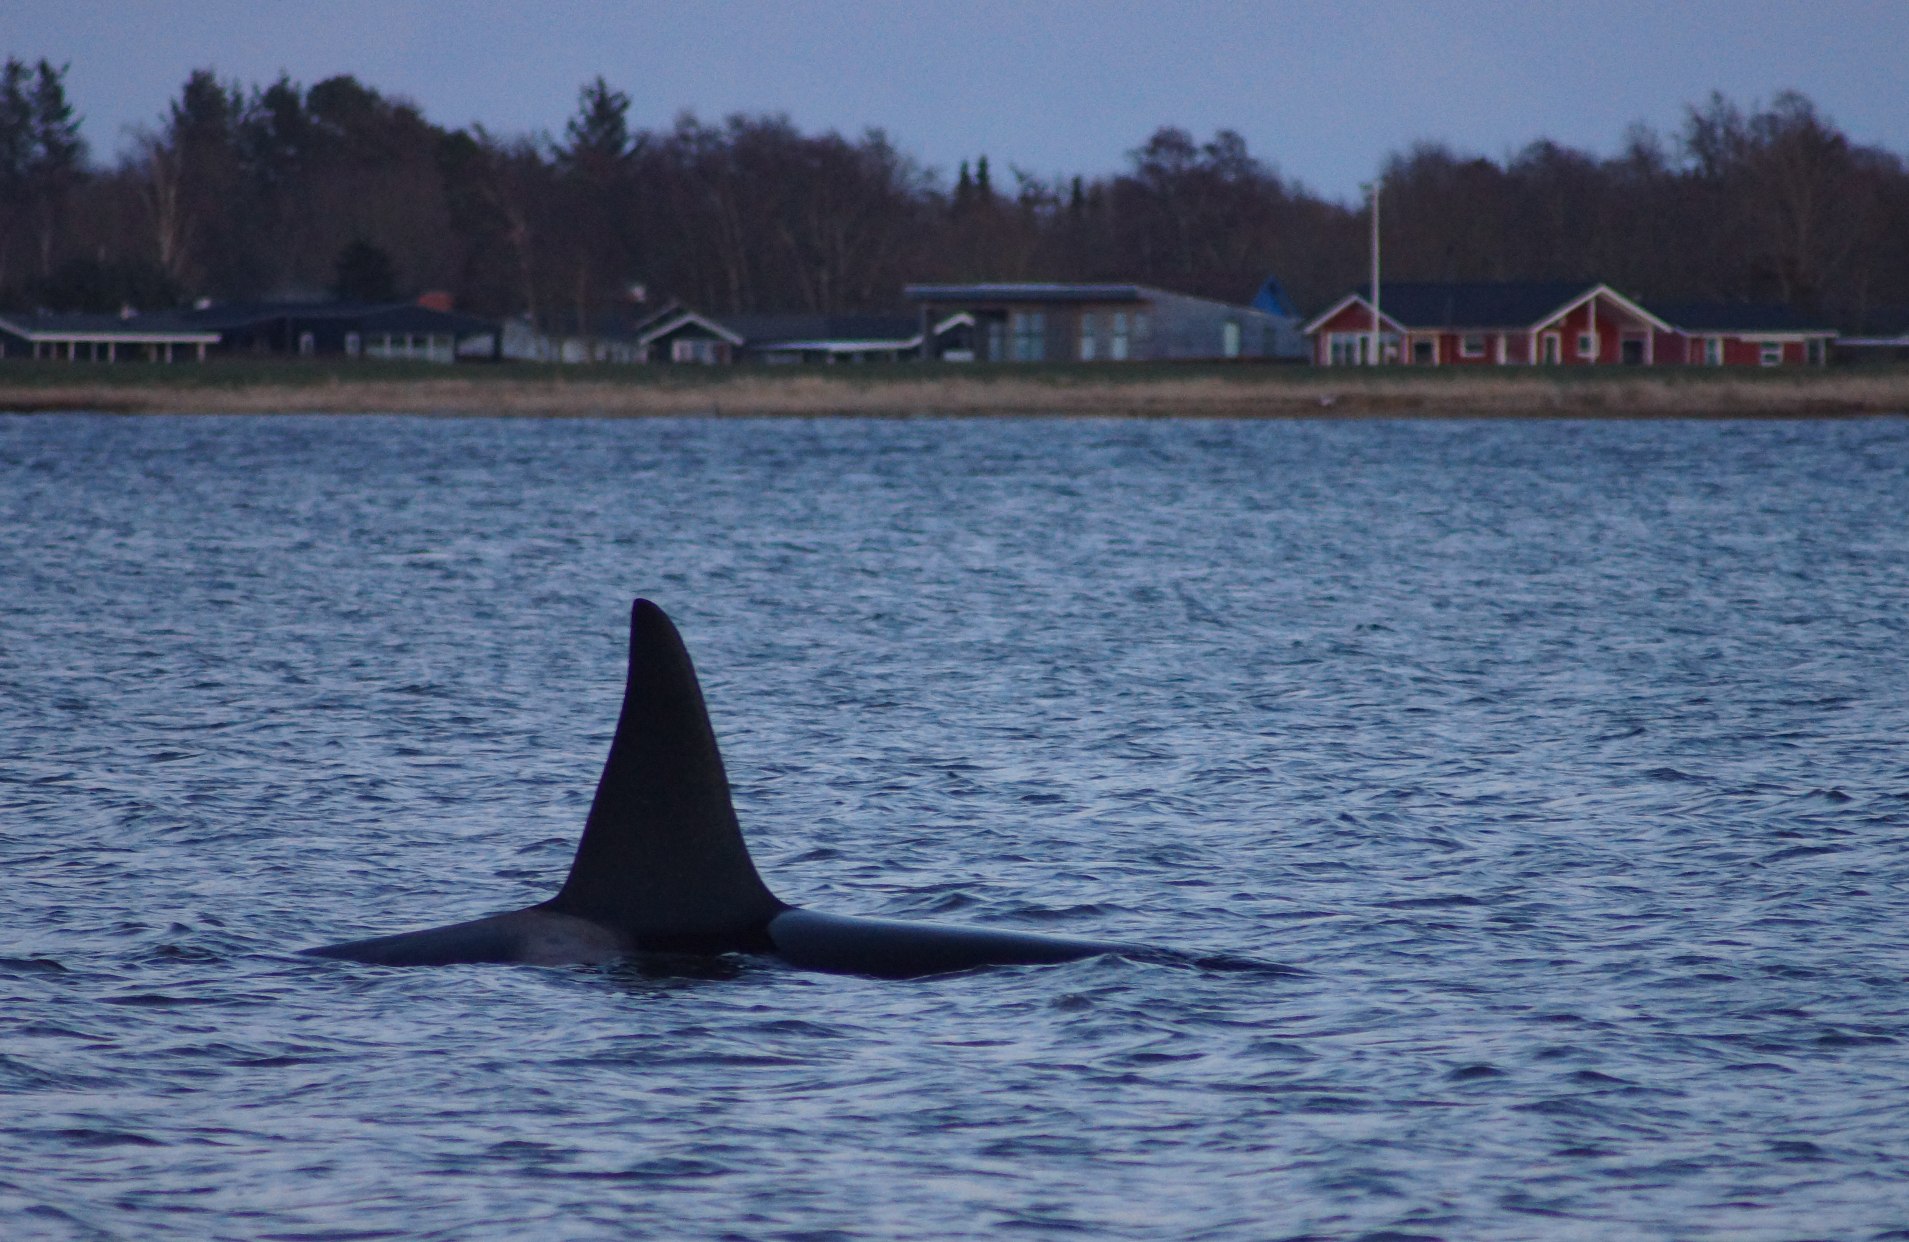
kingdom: Animalia
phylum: Chordata
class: Mammalia
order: Cetacea
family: Delphinidae
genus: Orcinus
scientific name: Orcinus orca
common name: Spækhugger
